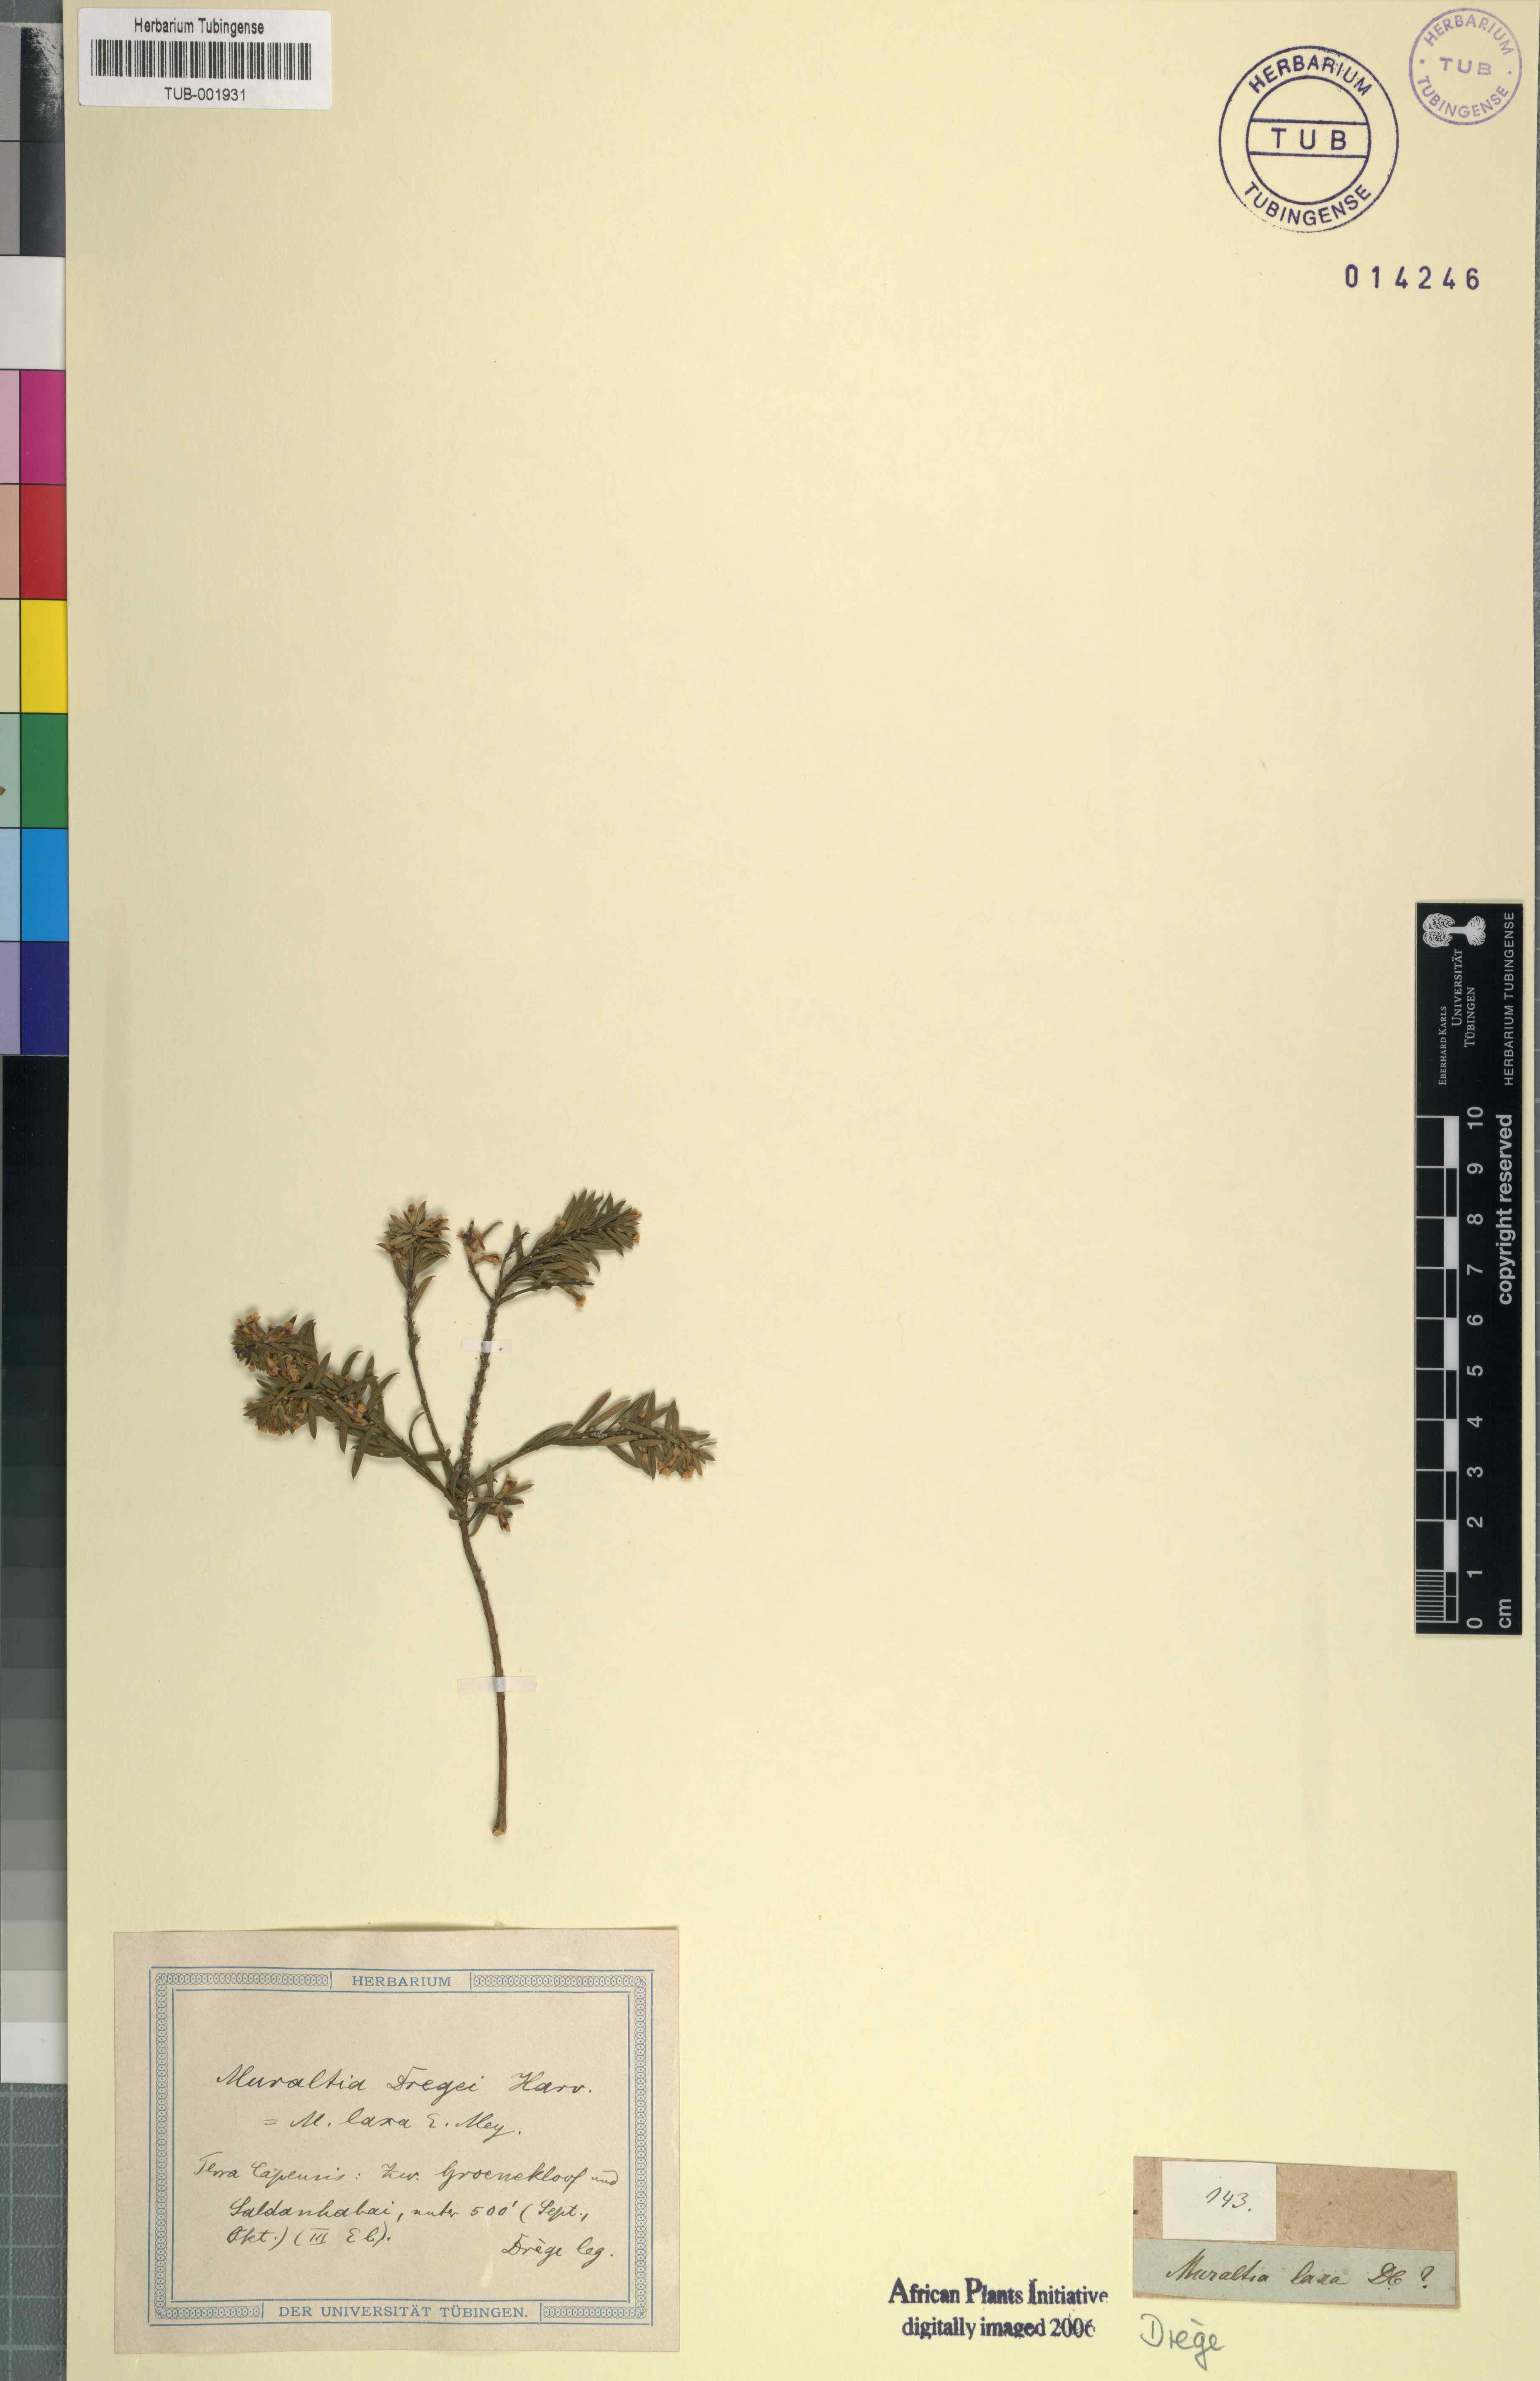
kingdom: Plantae
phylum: Tracheophyta
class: Magnoliopsida
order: Fabales
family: Polygalaceae
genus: Muraltia
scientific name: Muraltia harveyana
